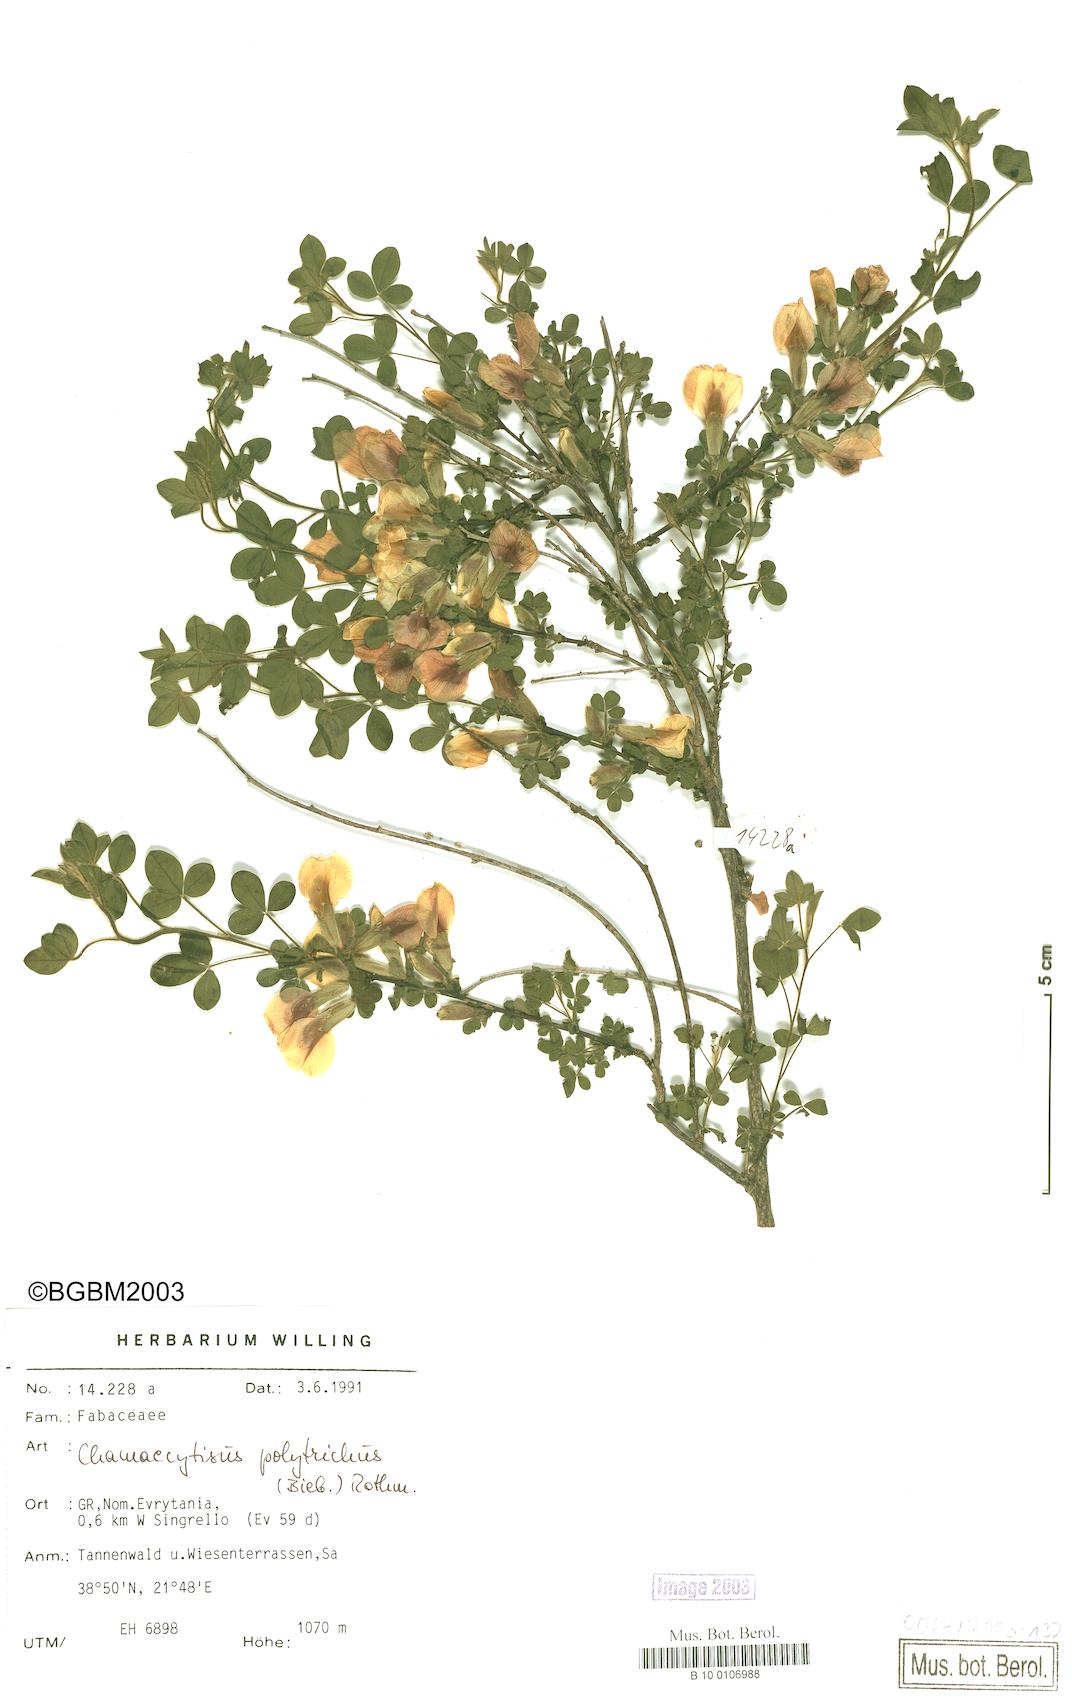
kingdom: Plantae
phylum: Tracheophyta
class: Magnoliopsida
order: Fabales
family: Fabaceae
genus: Chamaecytisus
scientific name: Chamaecytisus hirsutus
